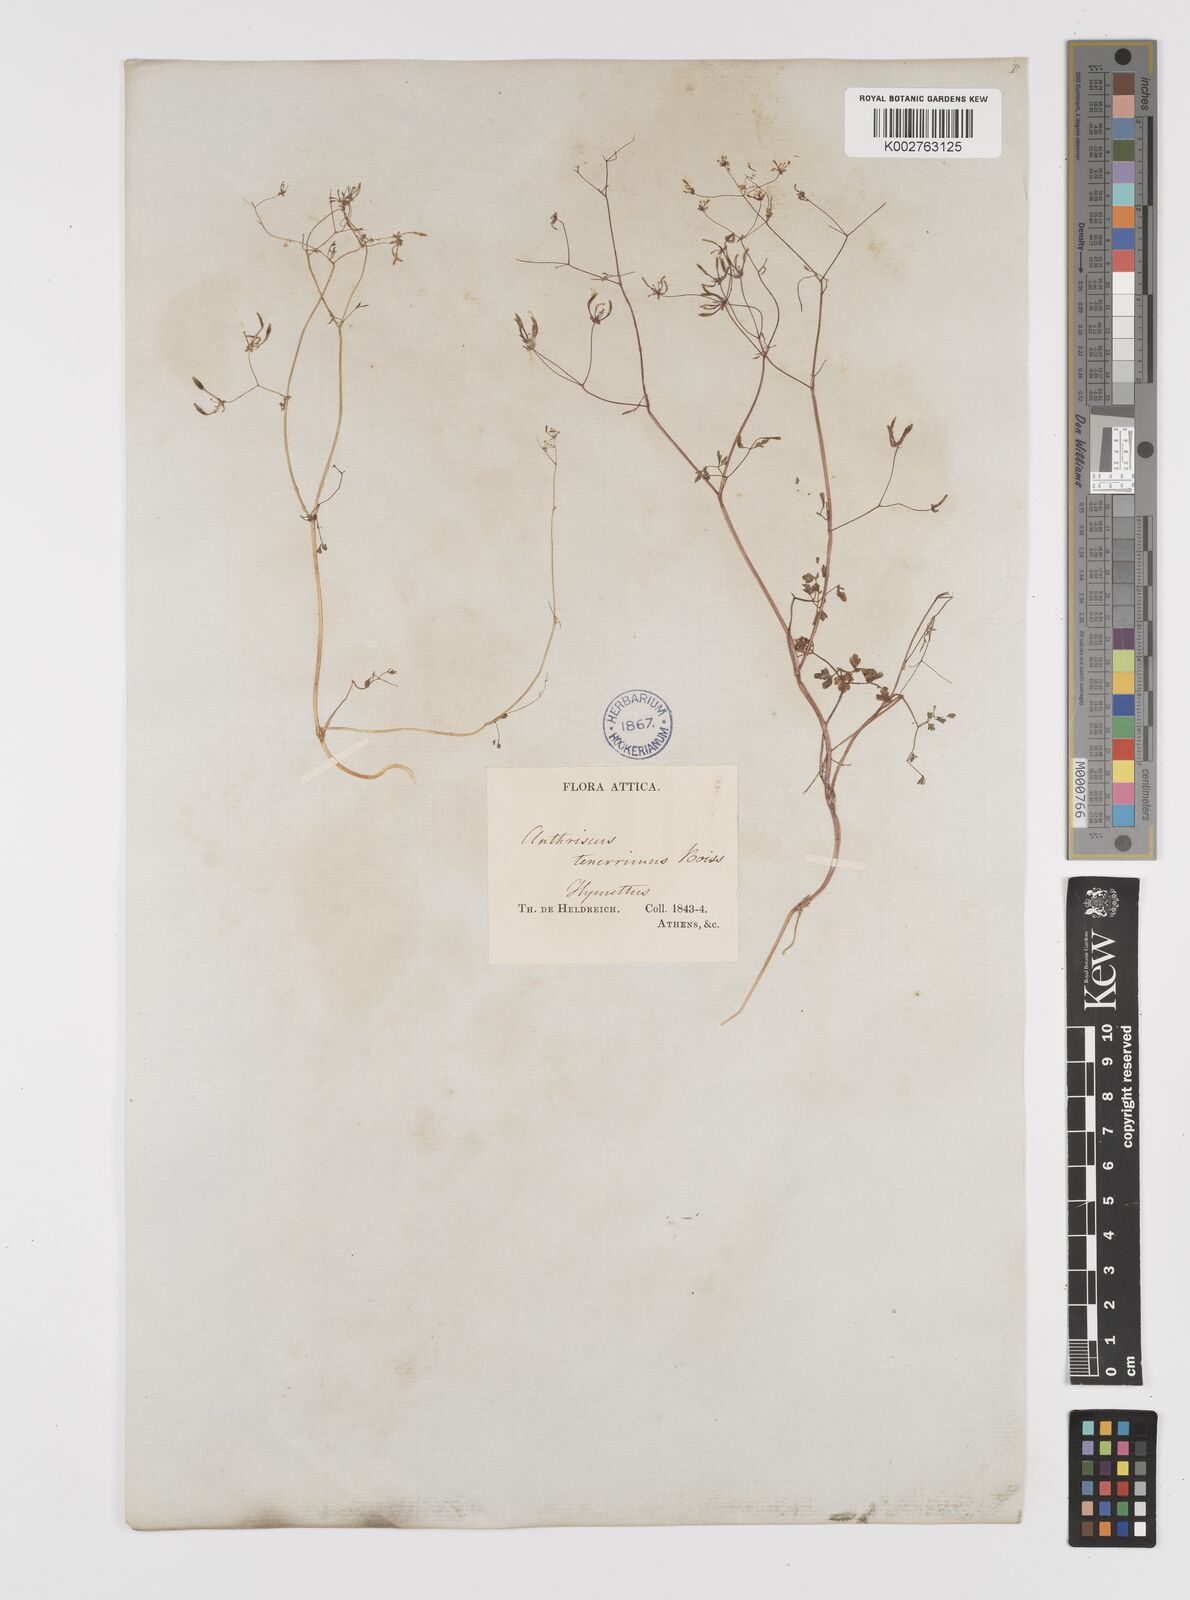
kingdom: Plantae
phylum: Tracheophyta
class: Magnoliopsida
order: Apiales
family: Apiaceae
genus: Anthriscus
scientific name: Anthriscus tenerrima
